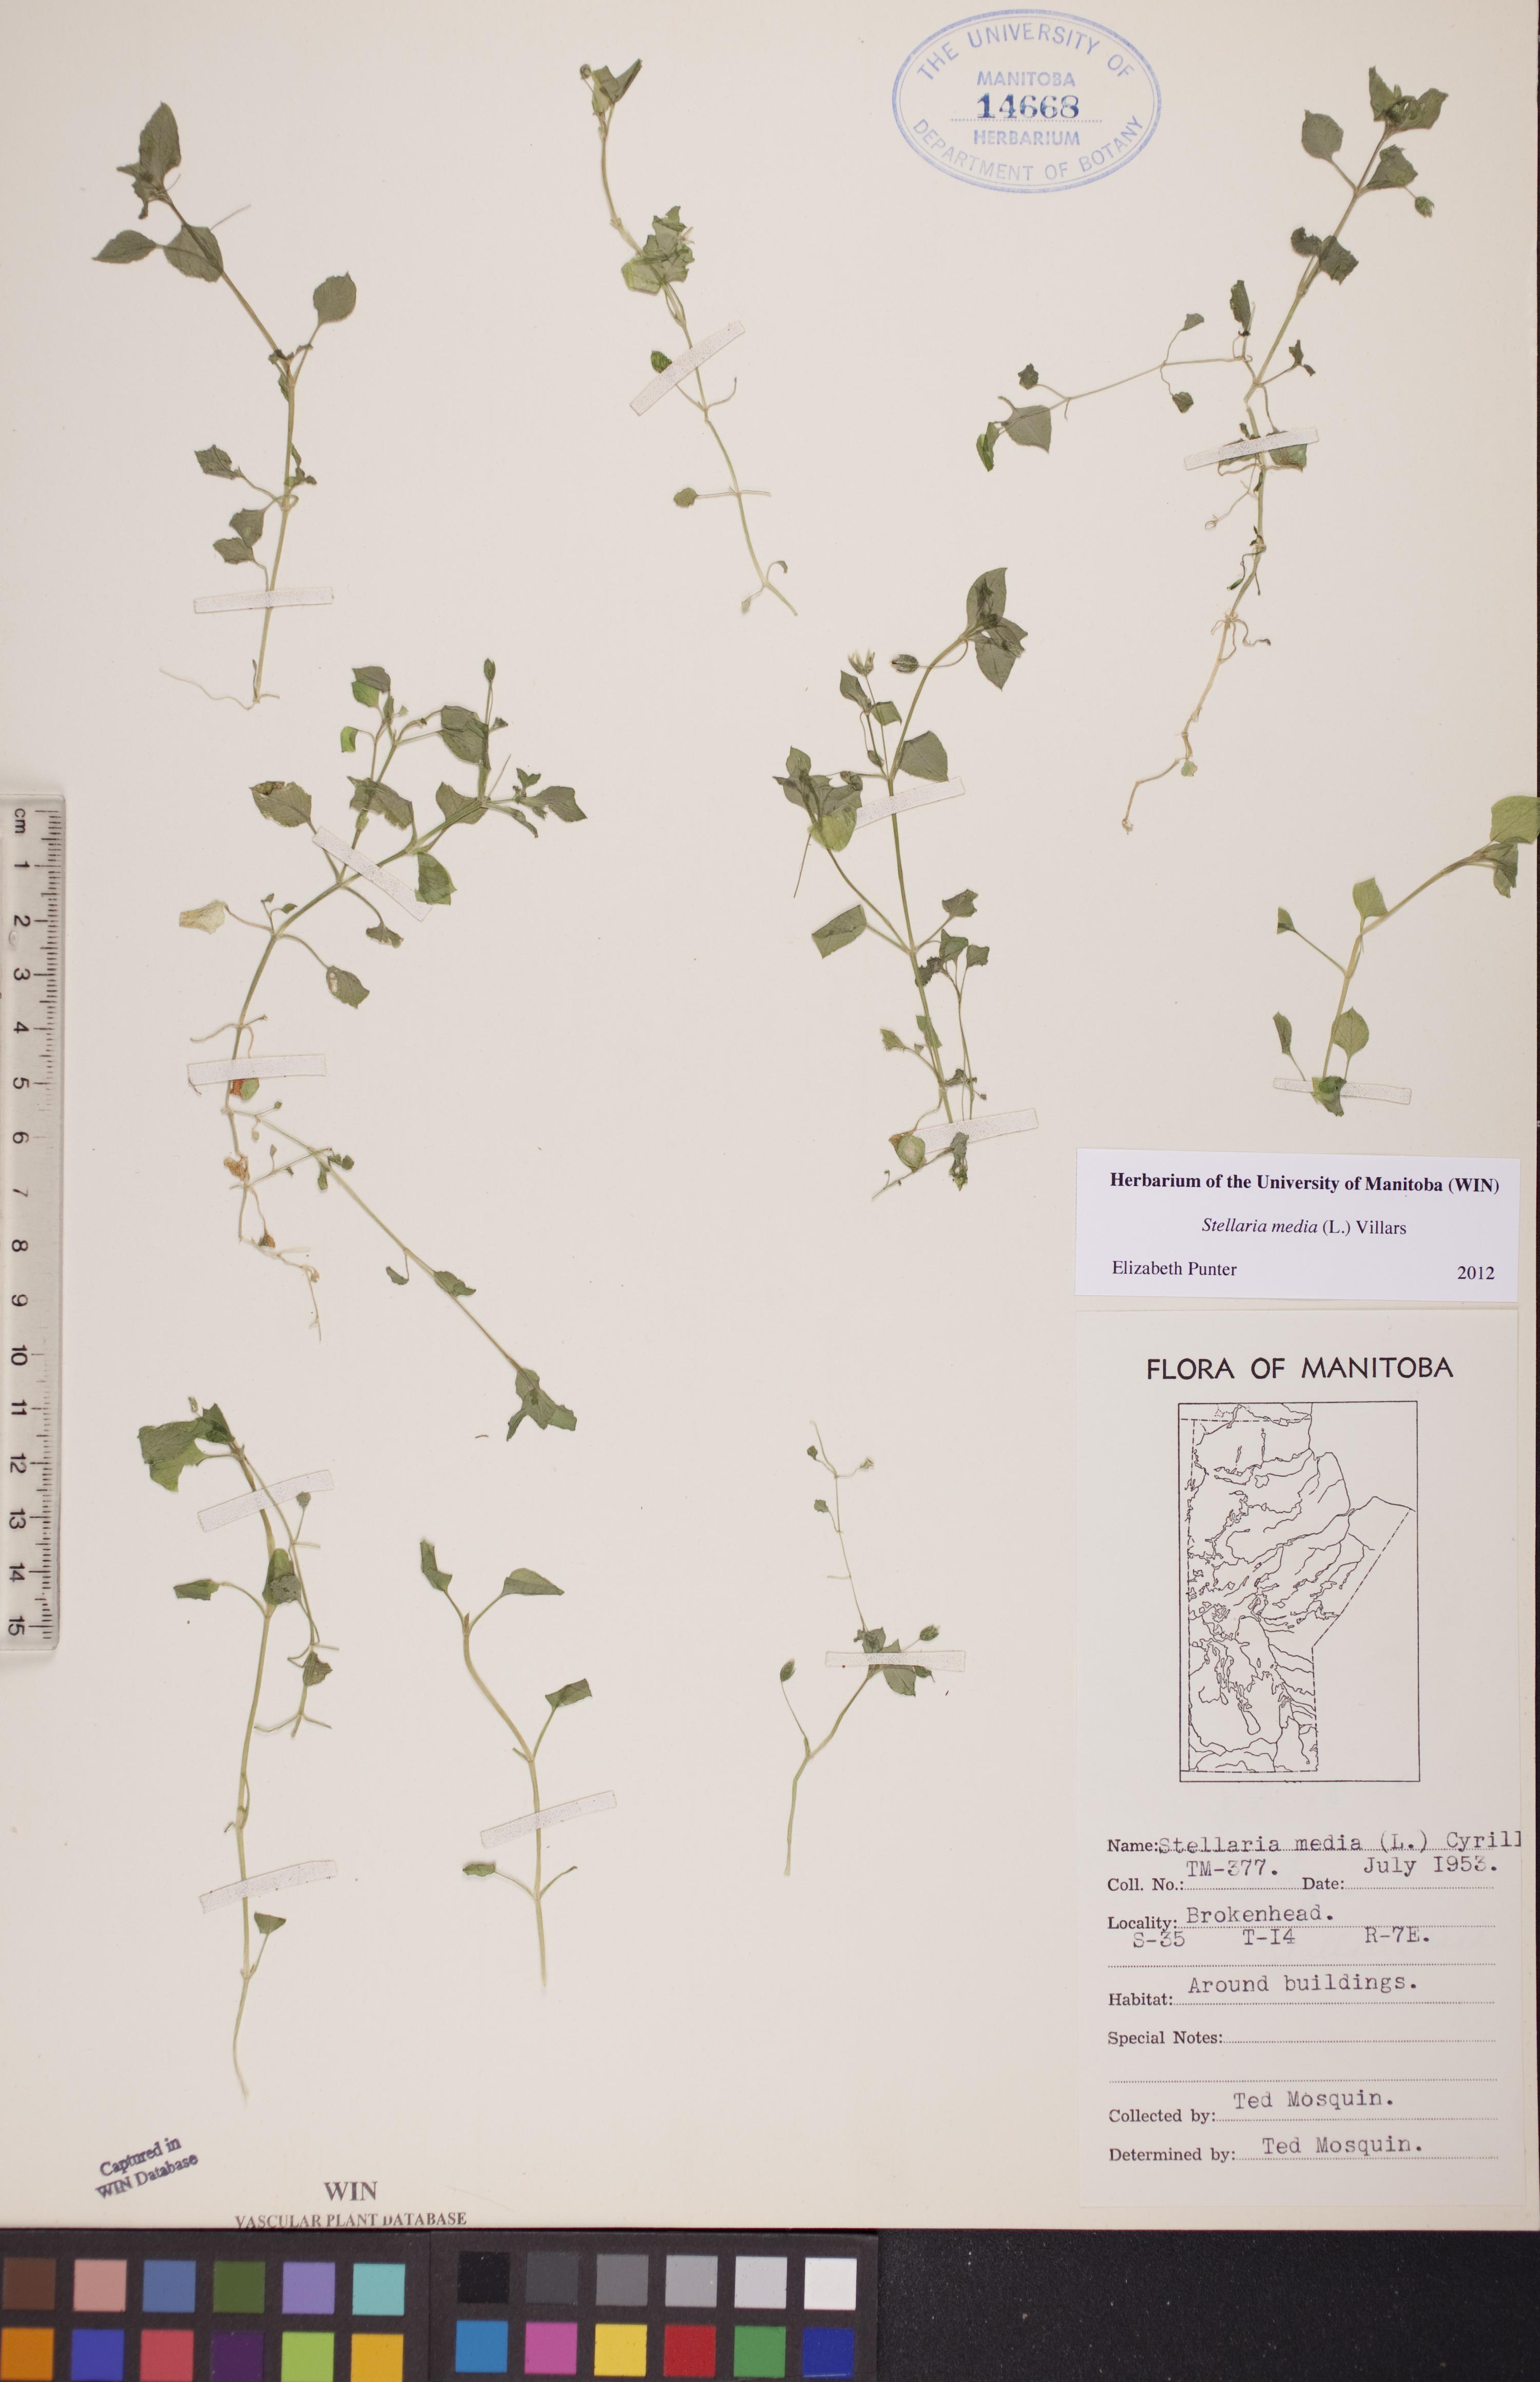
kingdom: Plantae
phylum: Tracheophyta
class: Magnoliopsida
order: Caryophyllales
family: Caryophyllaceae
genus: Stellaria
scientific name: Stellaria media
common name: Common chickweed
